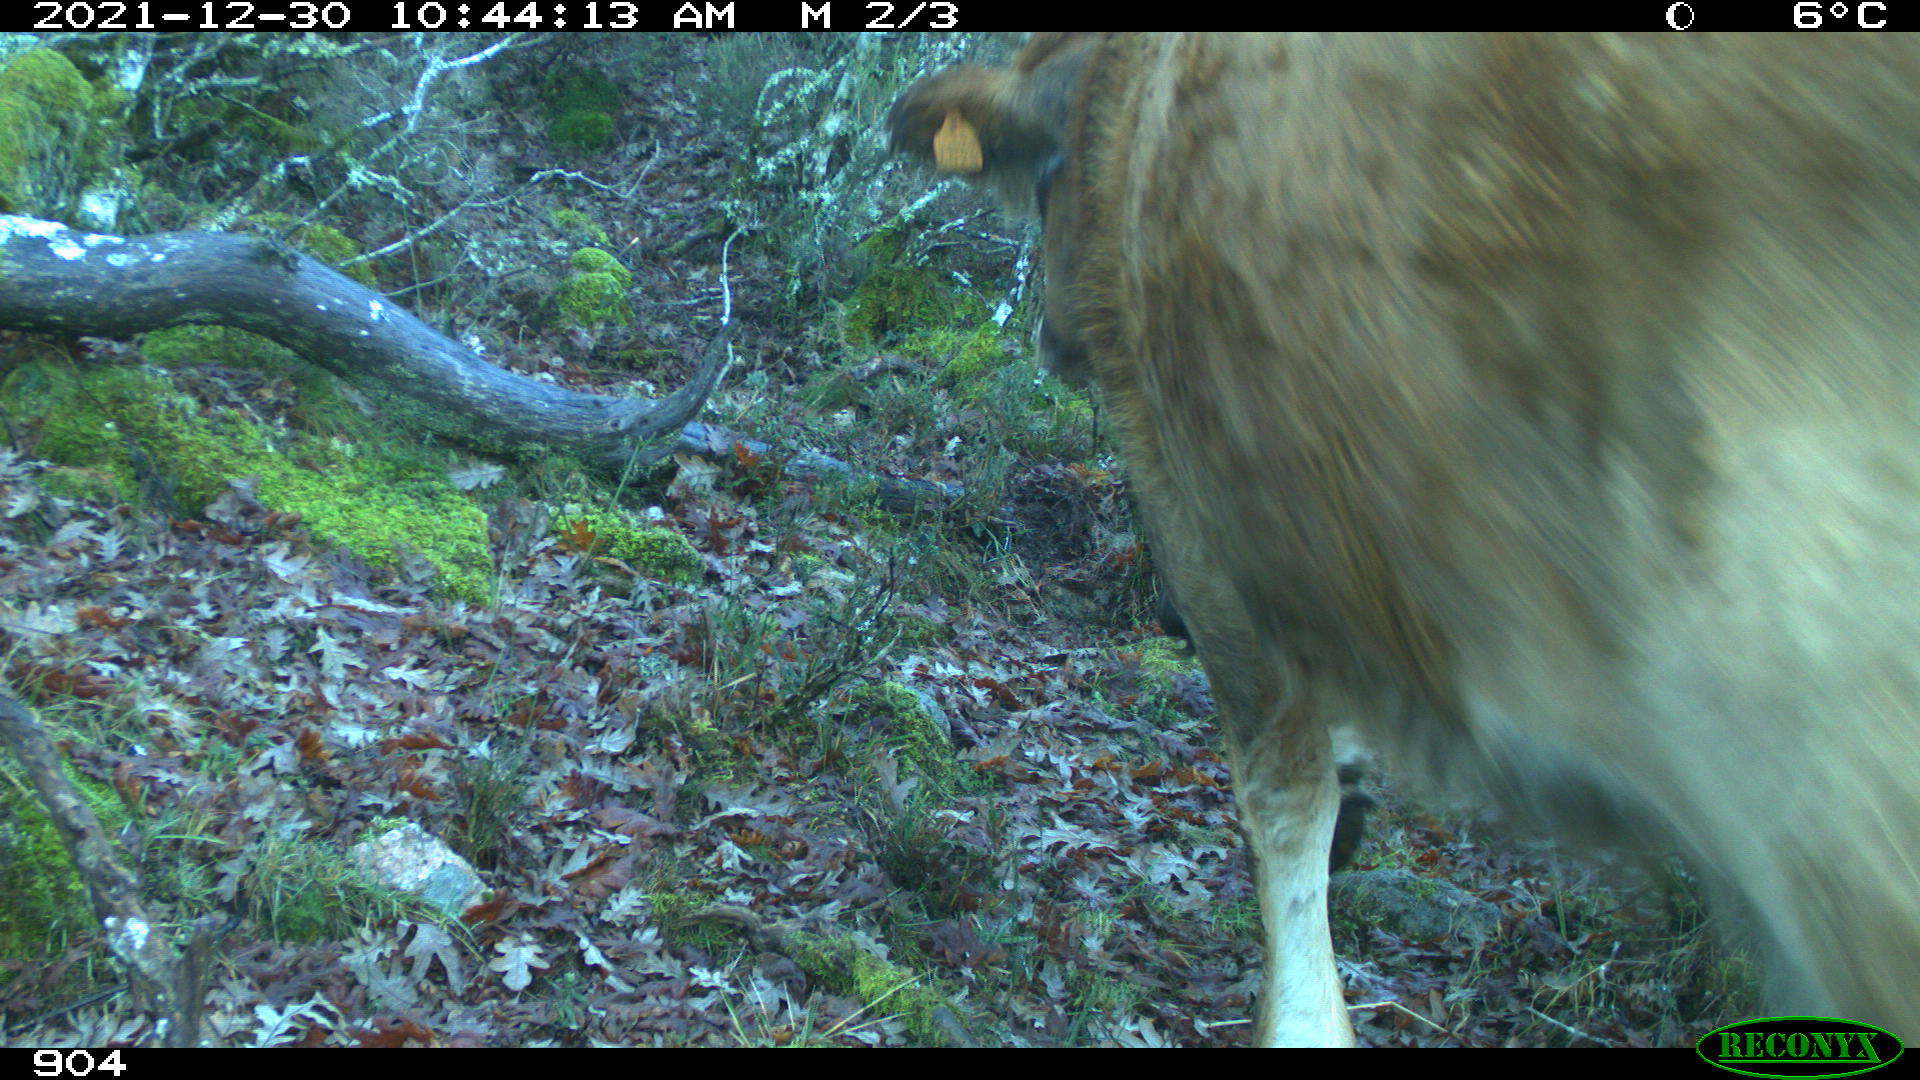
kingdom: Animalia
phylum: Chordata
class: Mammalia
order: Artiodactyla
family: Bovidae
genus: Bos
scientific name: Bos taurus
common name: Domesticated cattle
